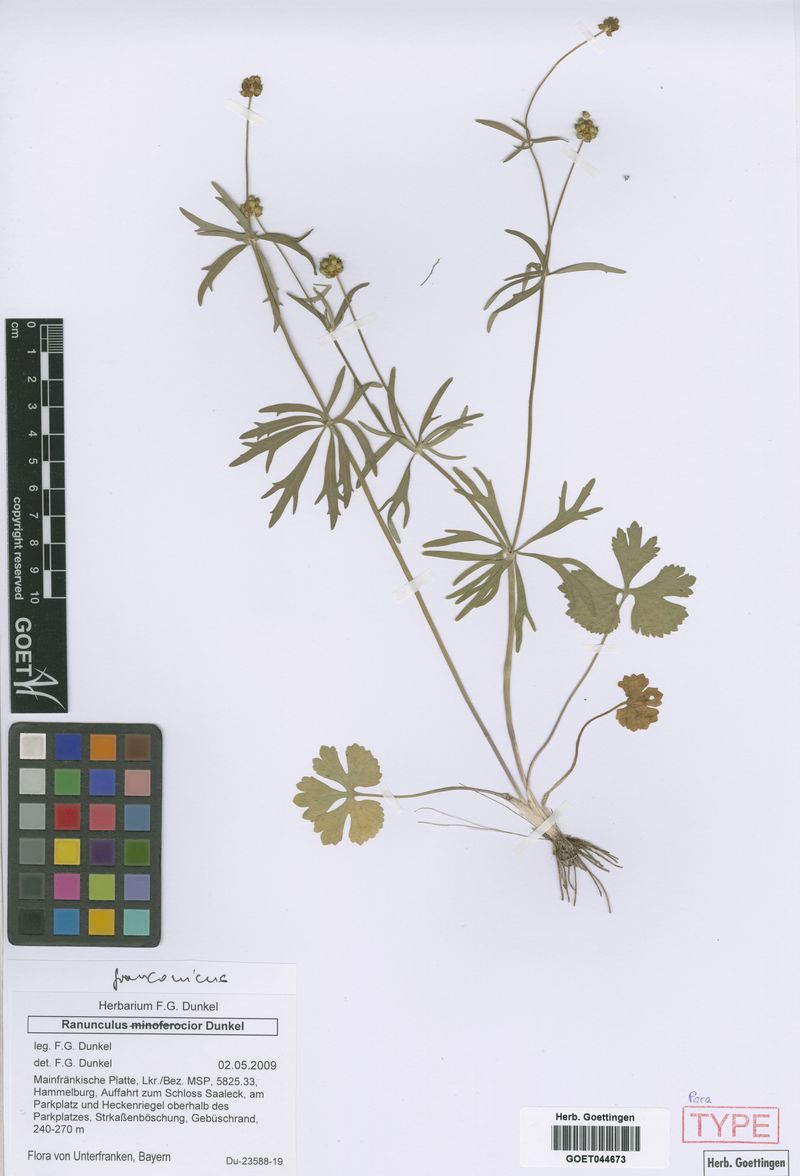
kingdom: Plantae
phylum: Tracheophyta
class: Magnoliopsida
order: Ranunculales
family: Ranunculaceae
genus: Ranunculus
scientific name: Ranunculus franconicus
